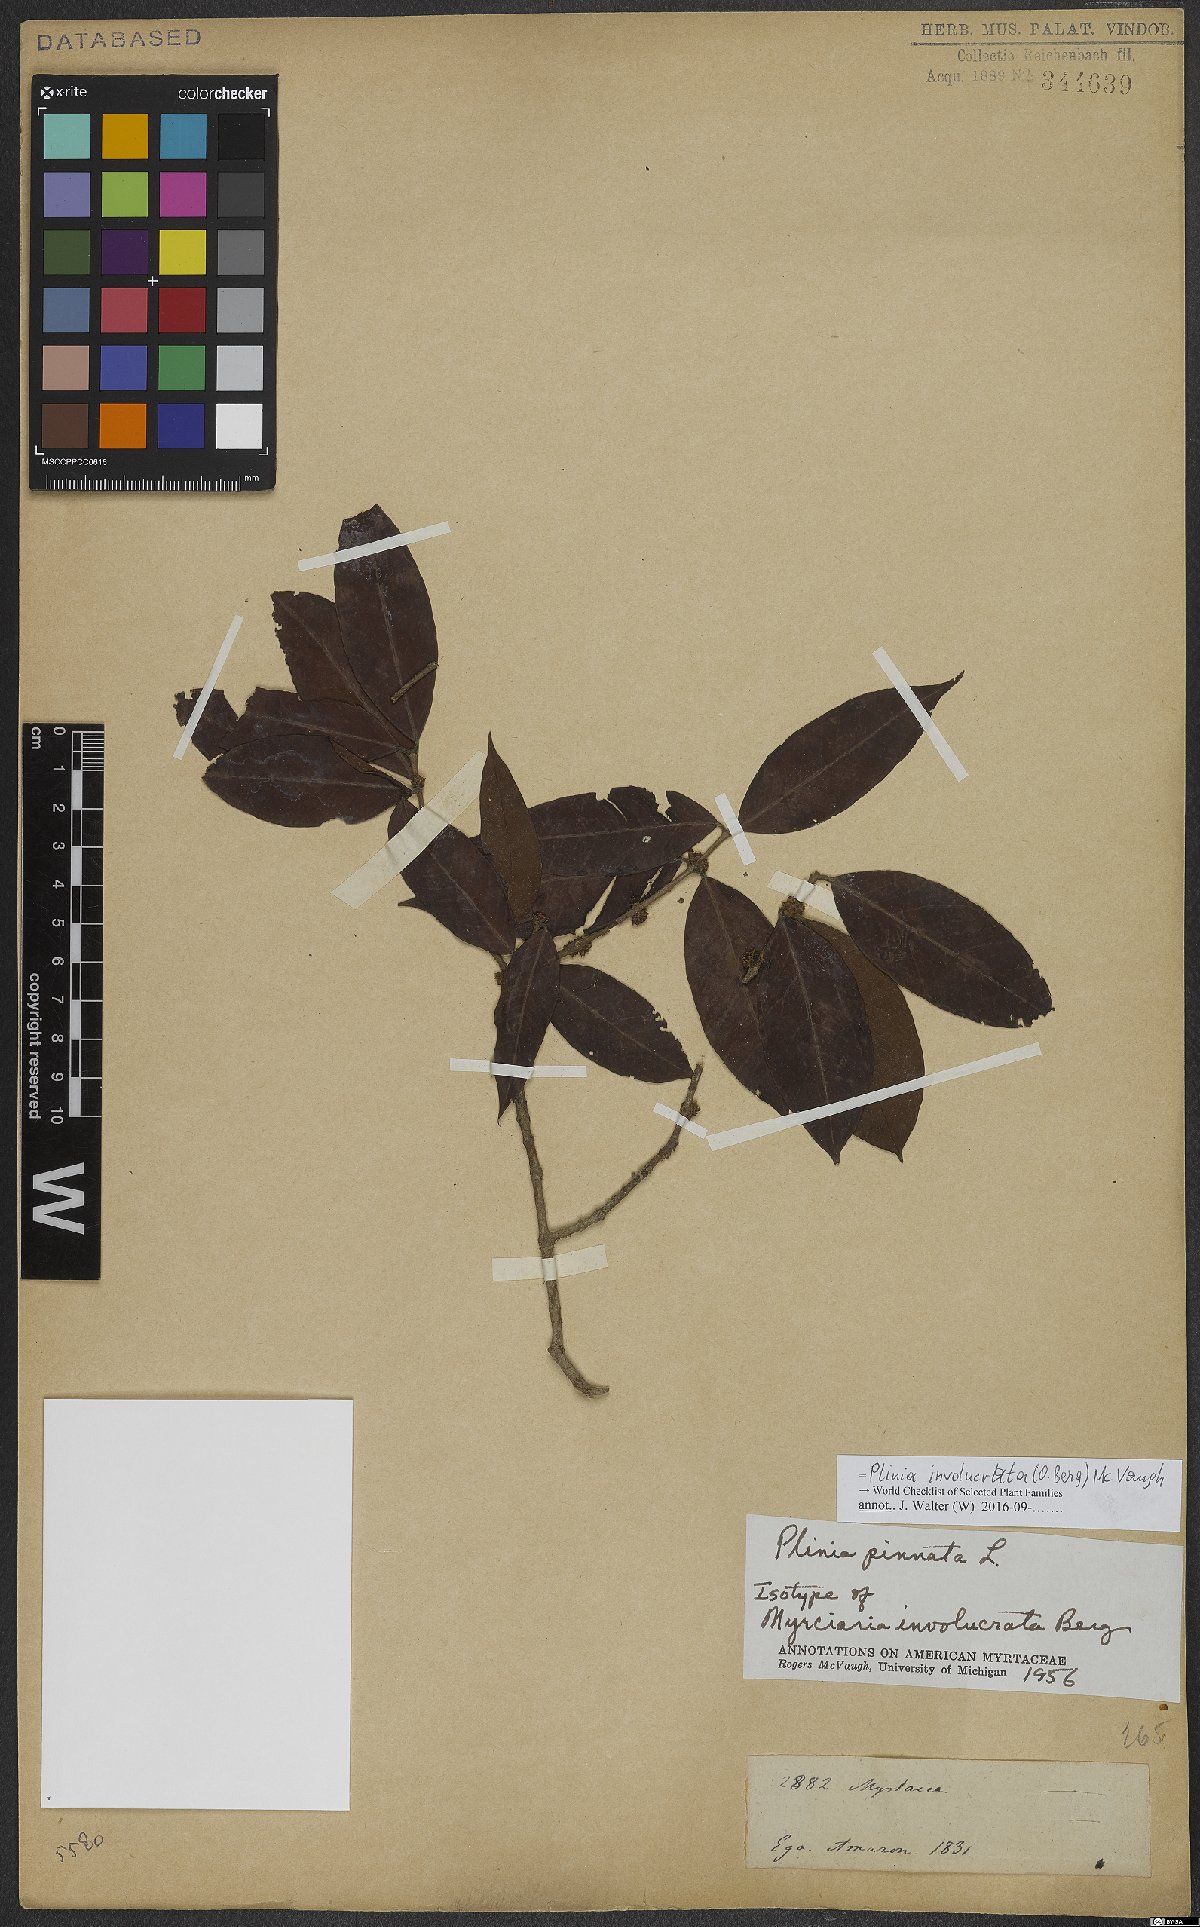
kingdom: Plantae
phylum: Tracheophyta
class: Magnoliopsida
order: Myrtales
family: Myrtaceae
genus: Plinia
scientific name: Plinia involucrata
